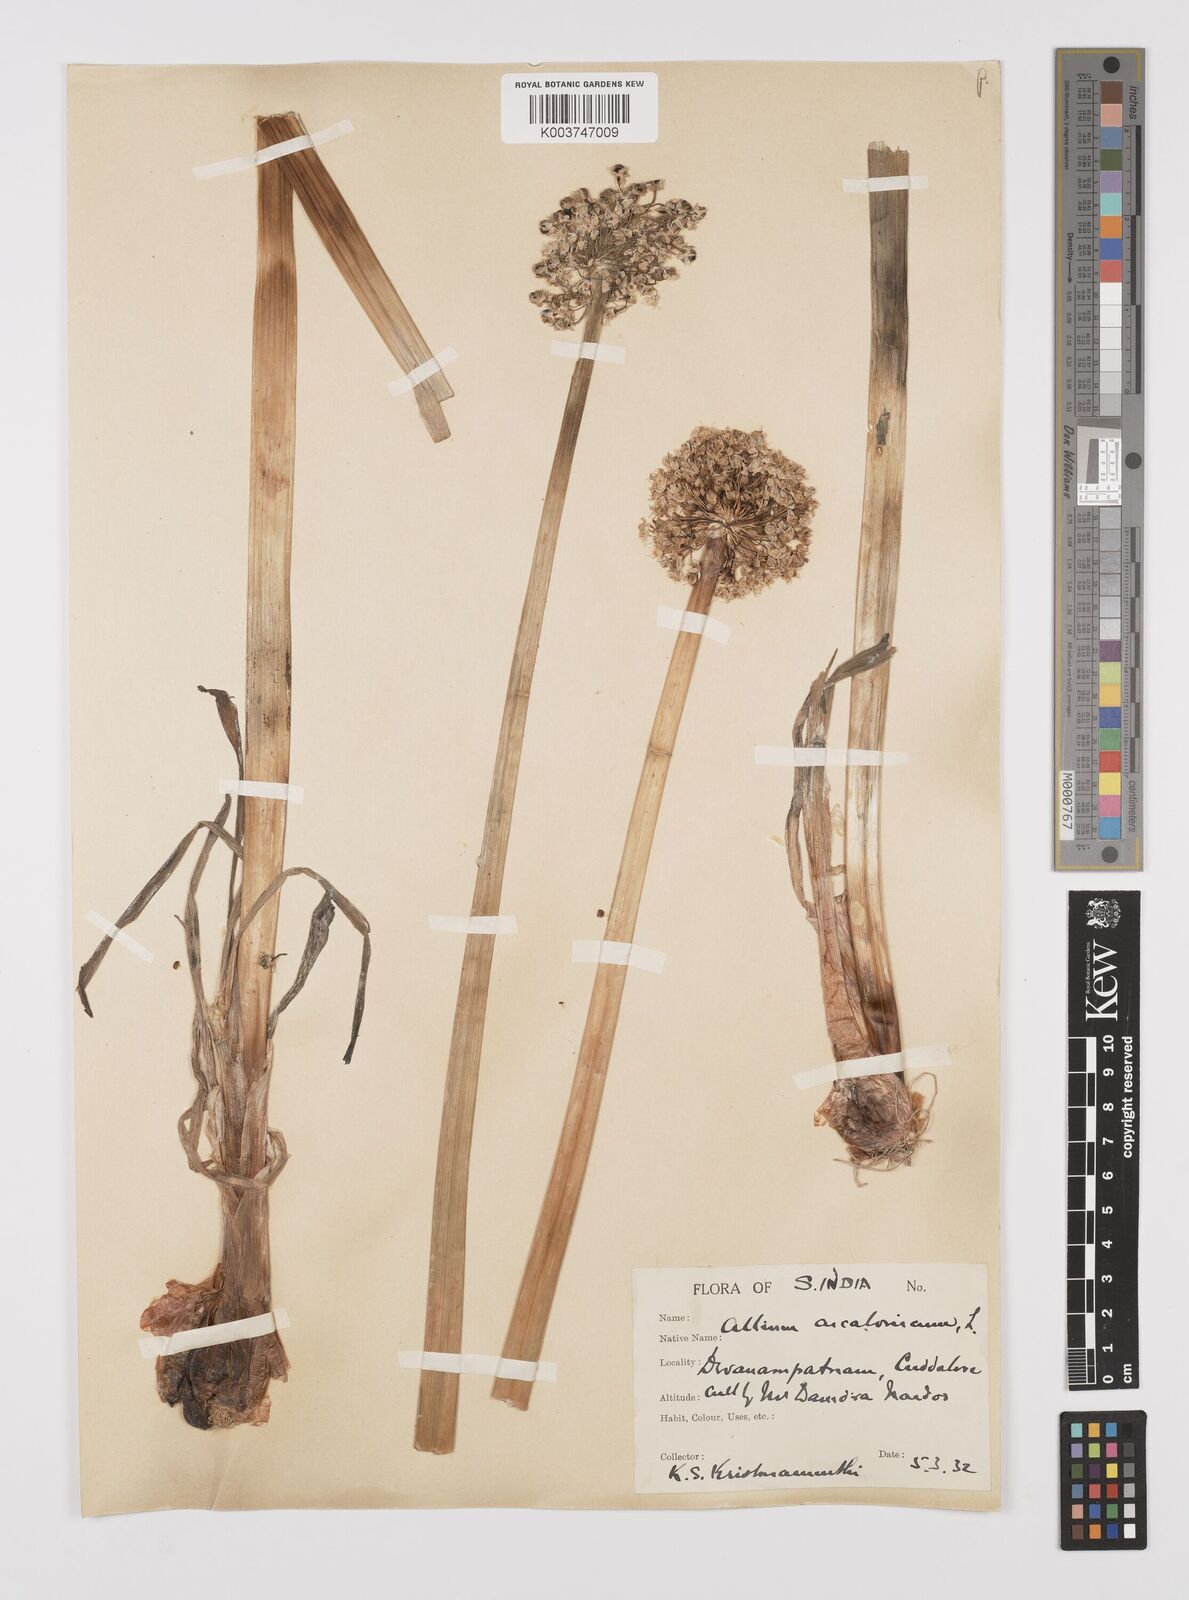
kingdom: Plantae
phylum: Tracheophyta
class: Liliopsida
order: Asparagales
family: Amaryllidaceae
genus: Allium
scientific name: Allium ascalonicum
